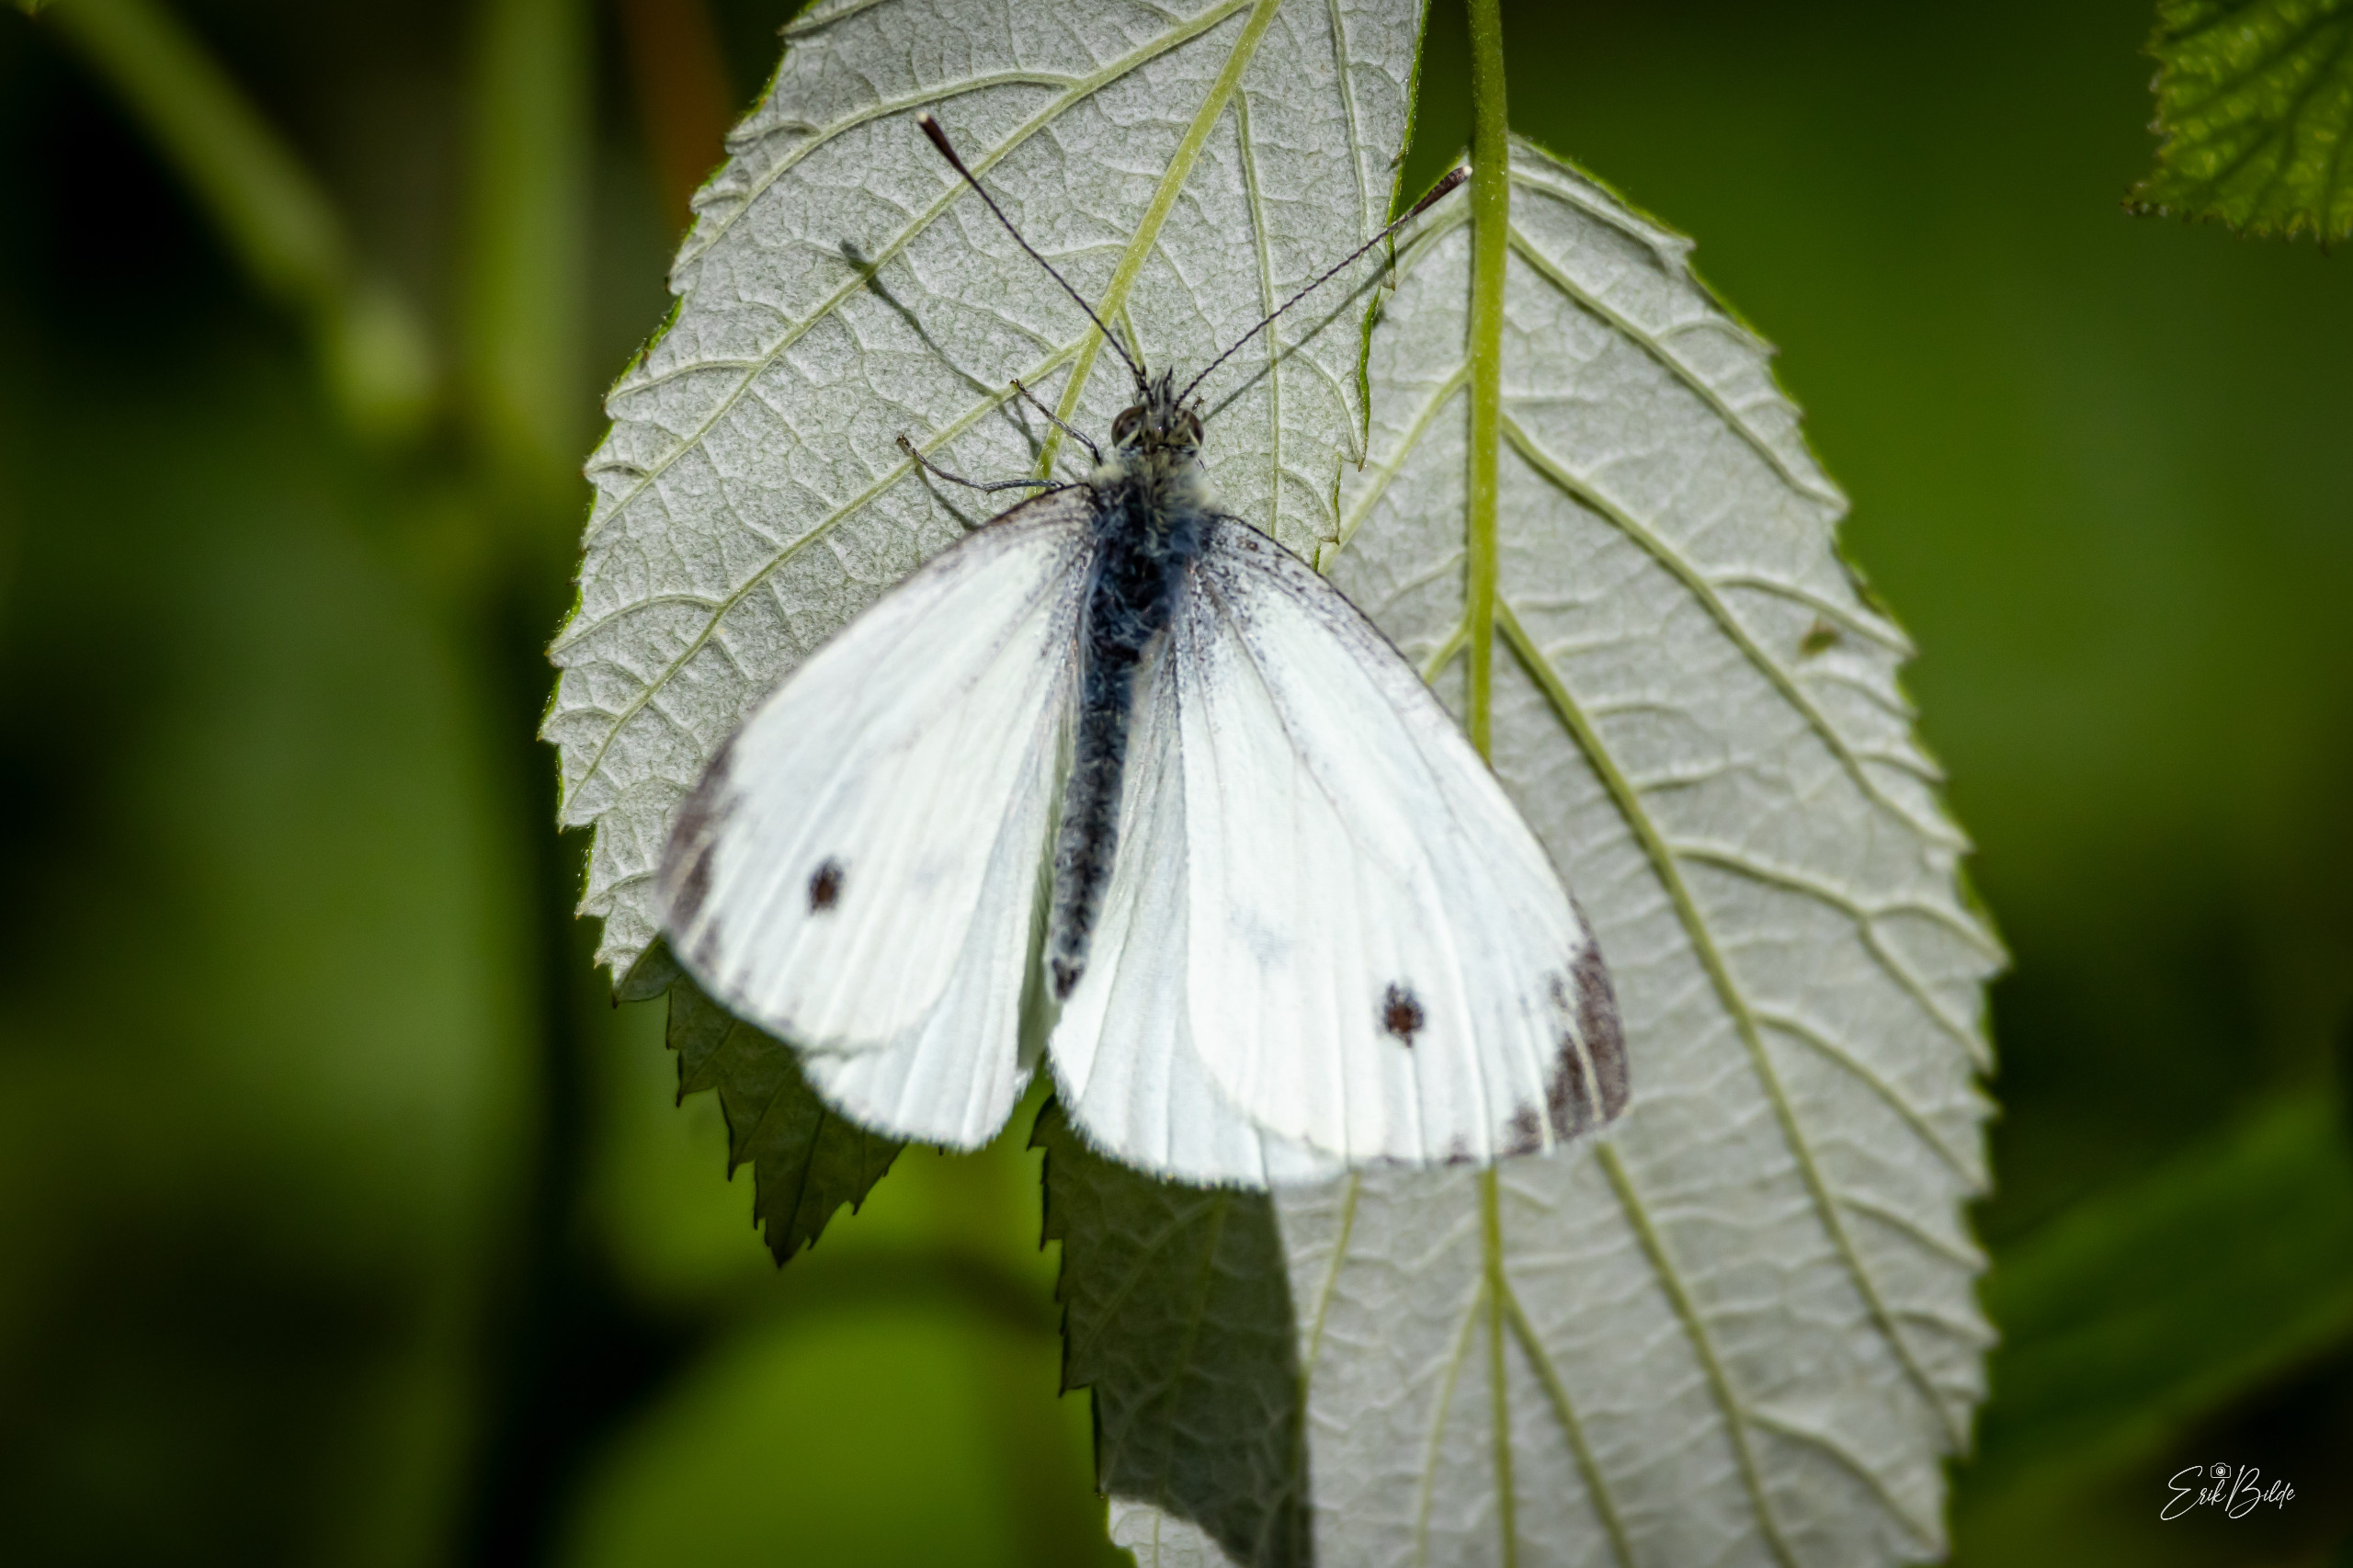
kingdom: Animalia
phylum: Arthropoda
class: Insecta
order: Lepidoptera
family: Pieridae
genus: Pieris
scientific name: Pieris napi
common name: Grønåret kålsommerfugl
